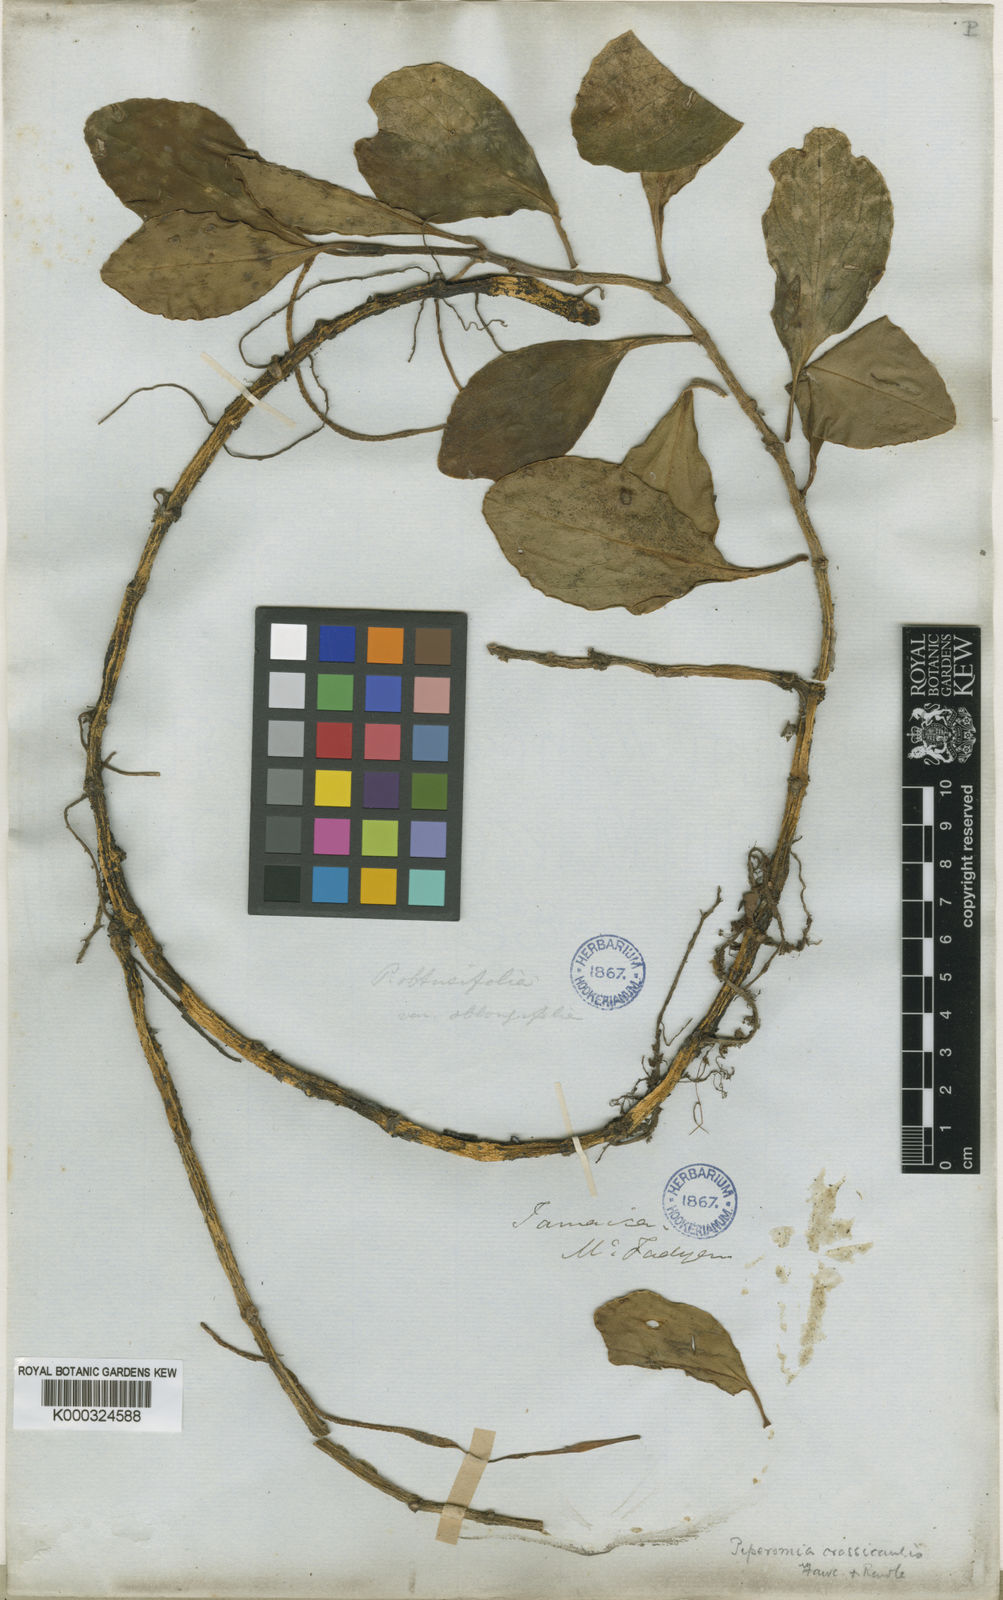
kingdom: Plantae
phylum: Tracheophyta
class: Magnoliopsida
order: Piperales
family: Piperaceae
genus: Peperomia
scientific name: Peperomia crassicaulis
